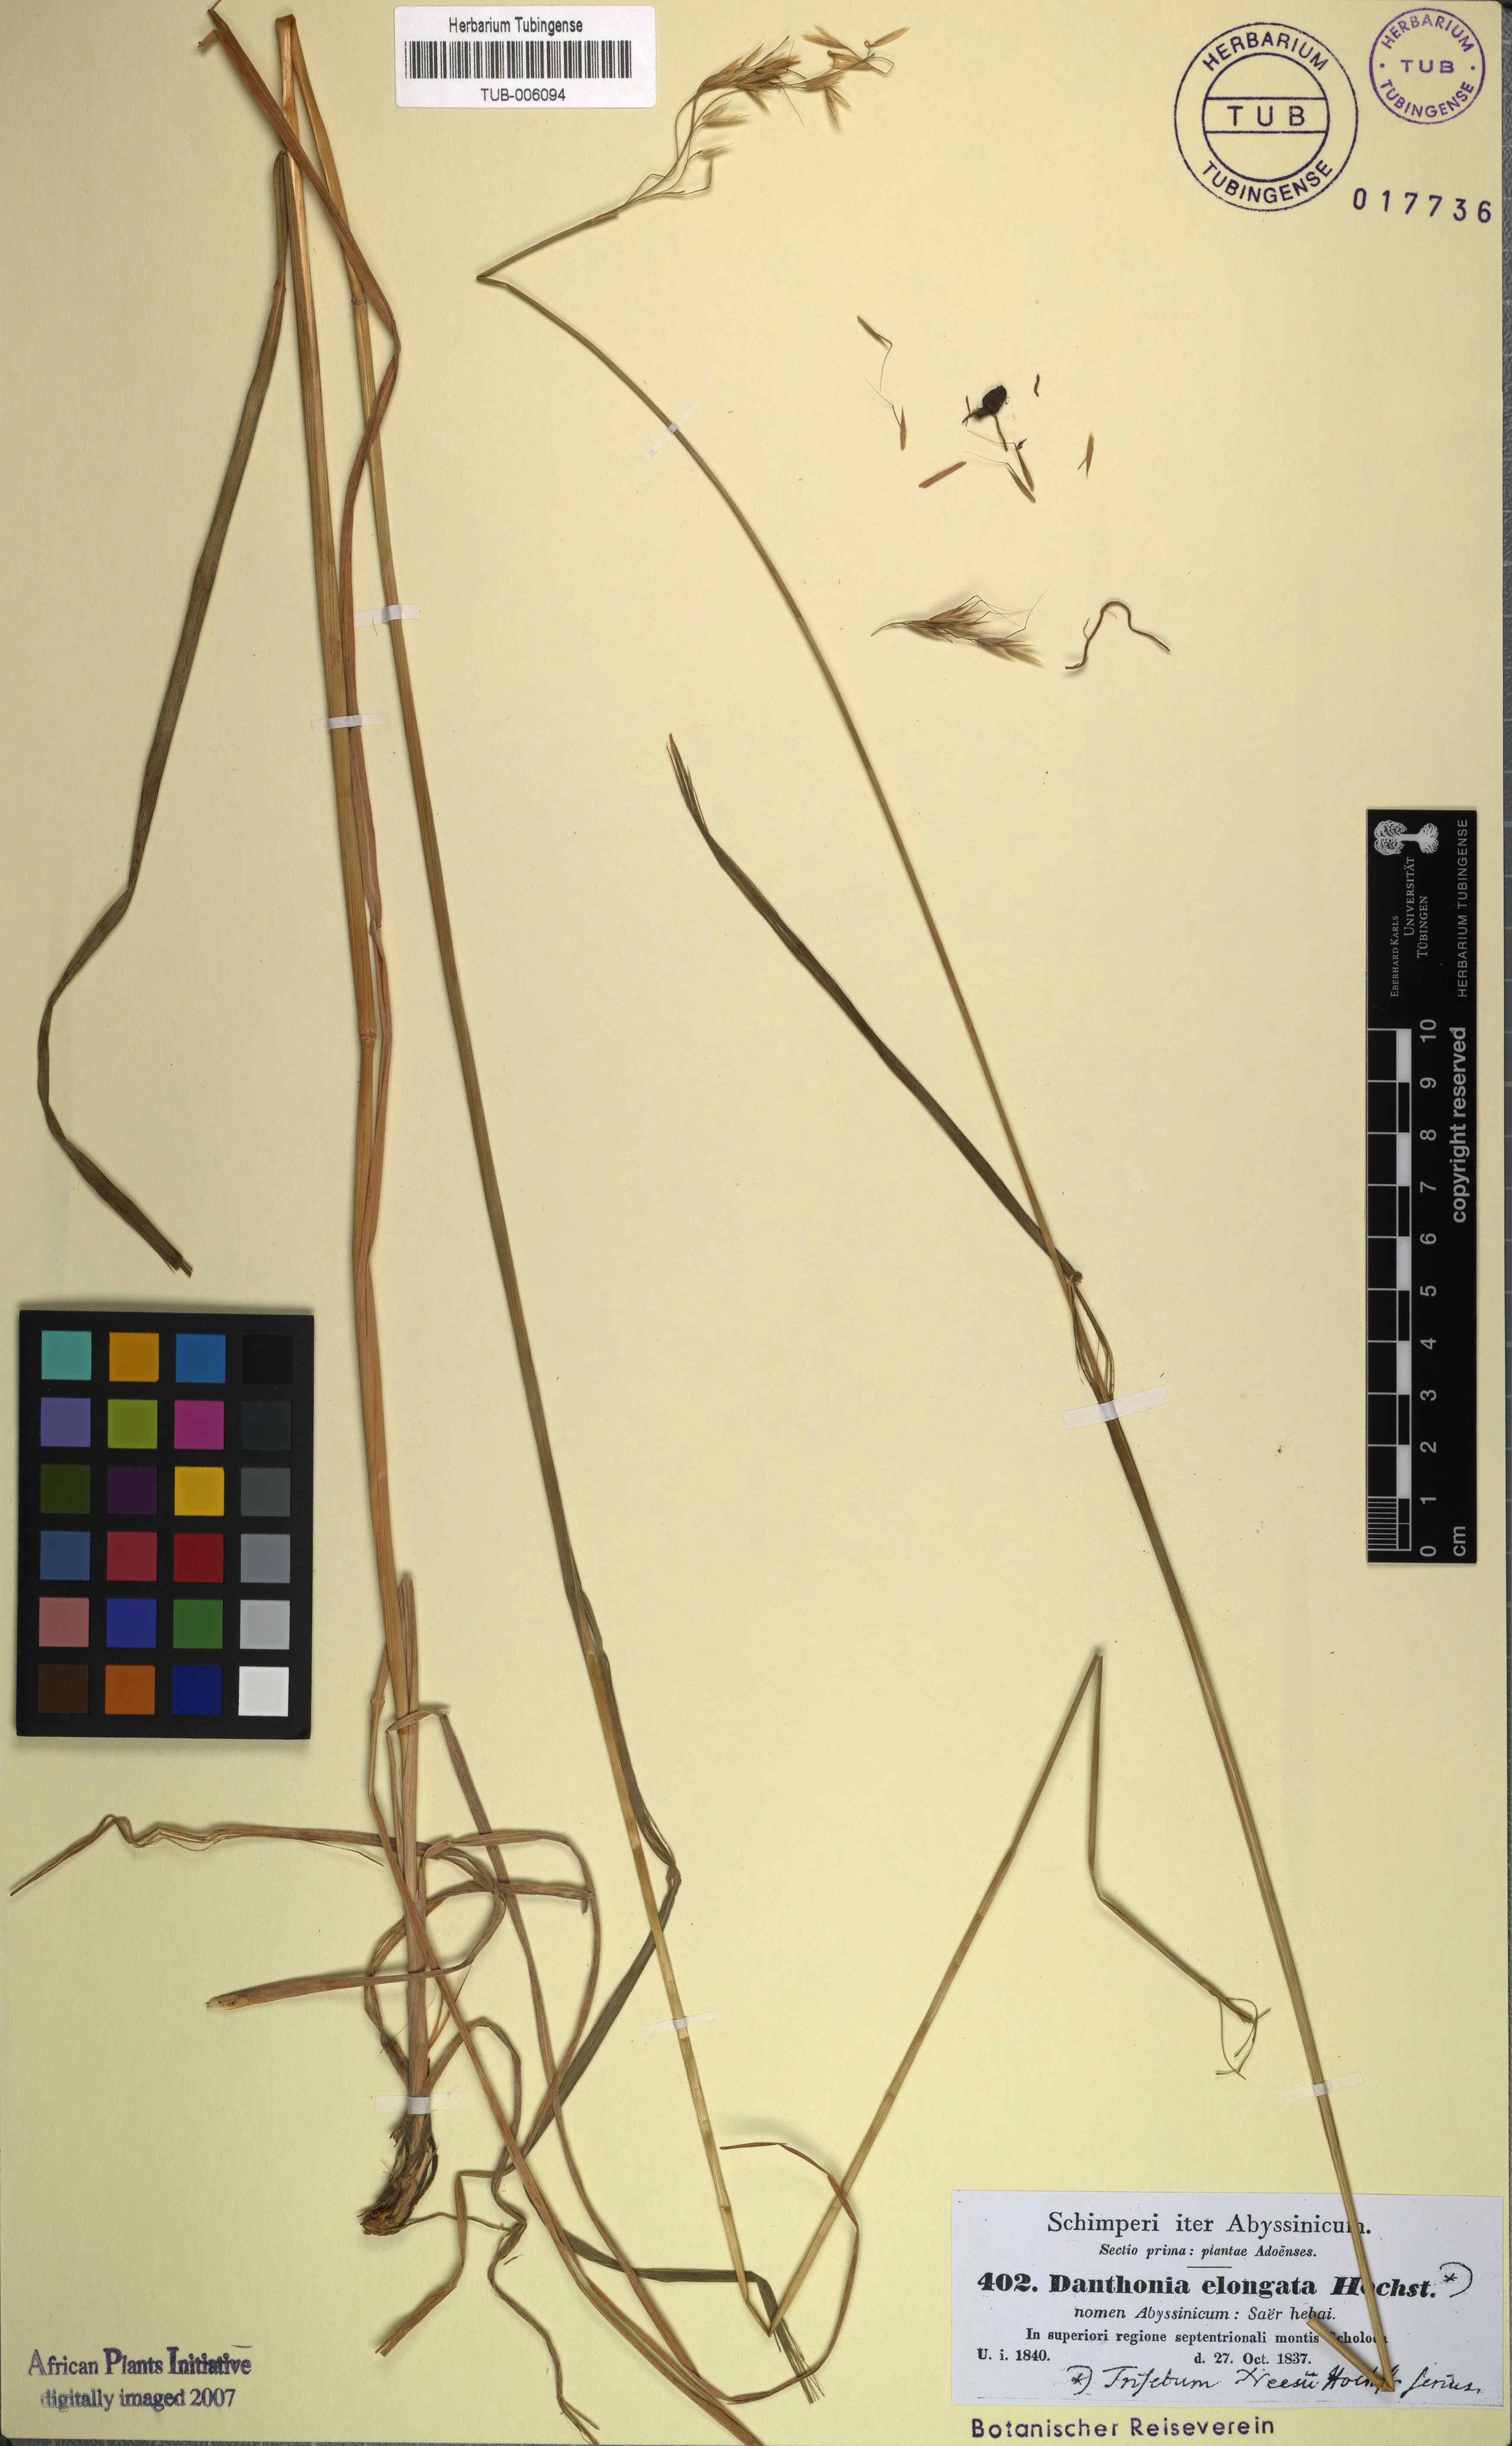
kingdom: Plantae
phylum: Tracheophyta
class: Liliopsida
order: Poales
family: Poaceae
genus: Trisetopsis
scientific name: Trisetopsis elongata
